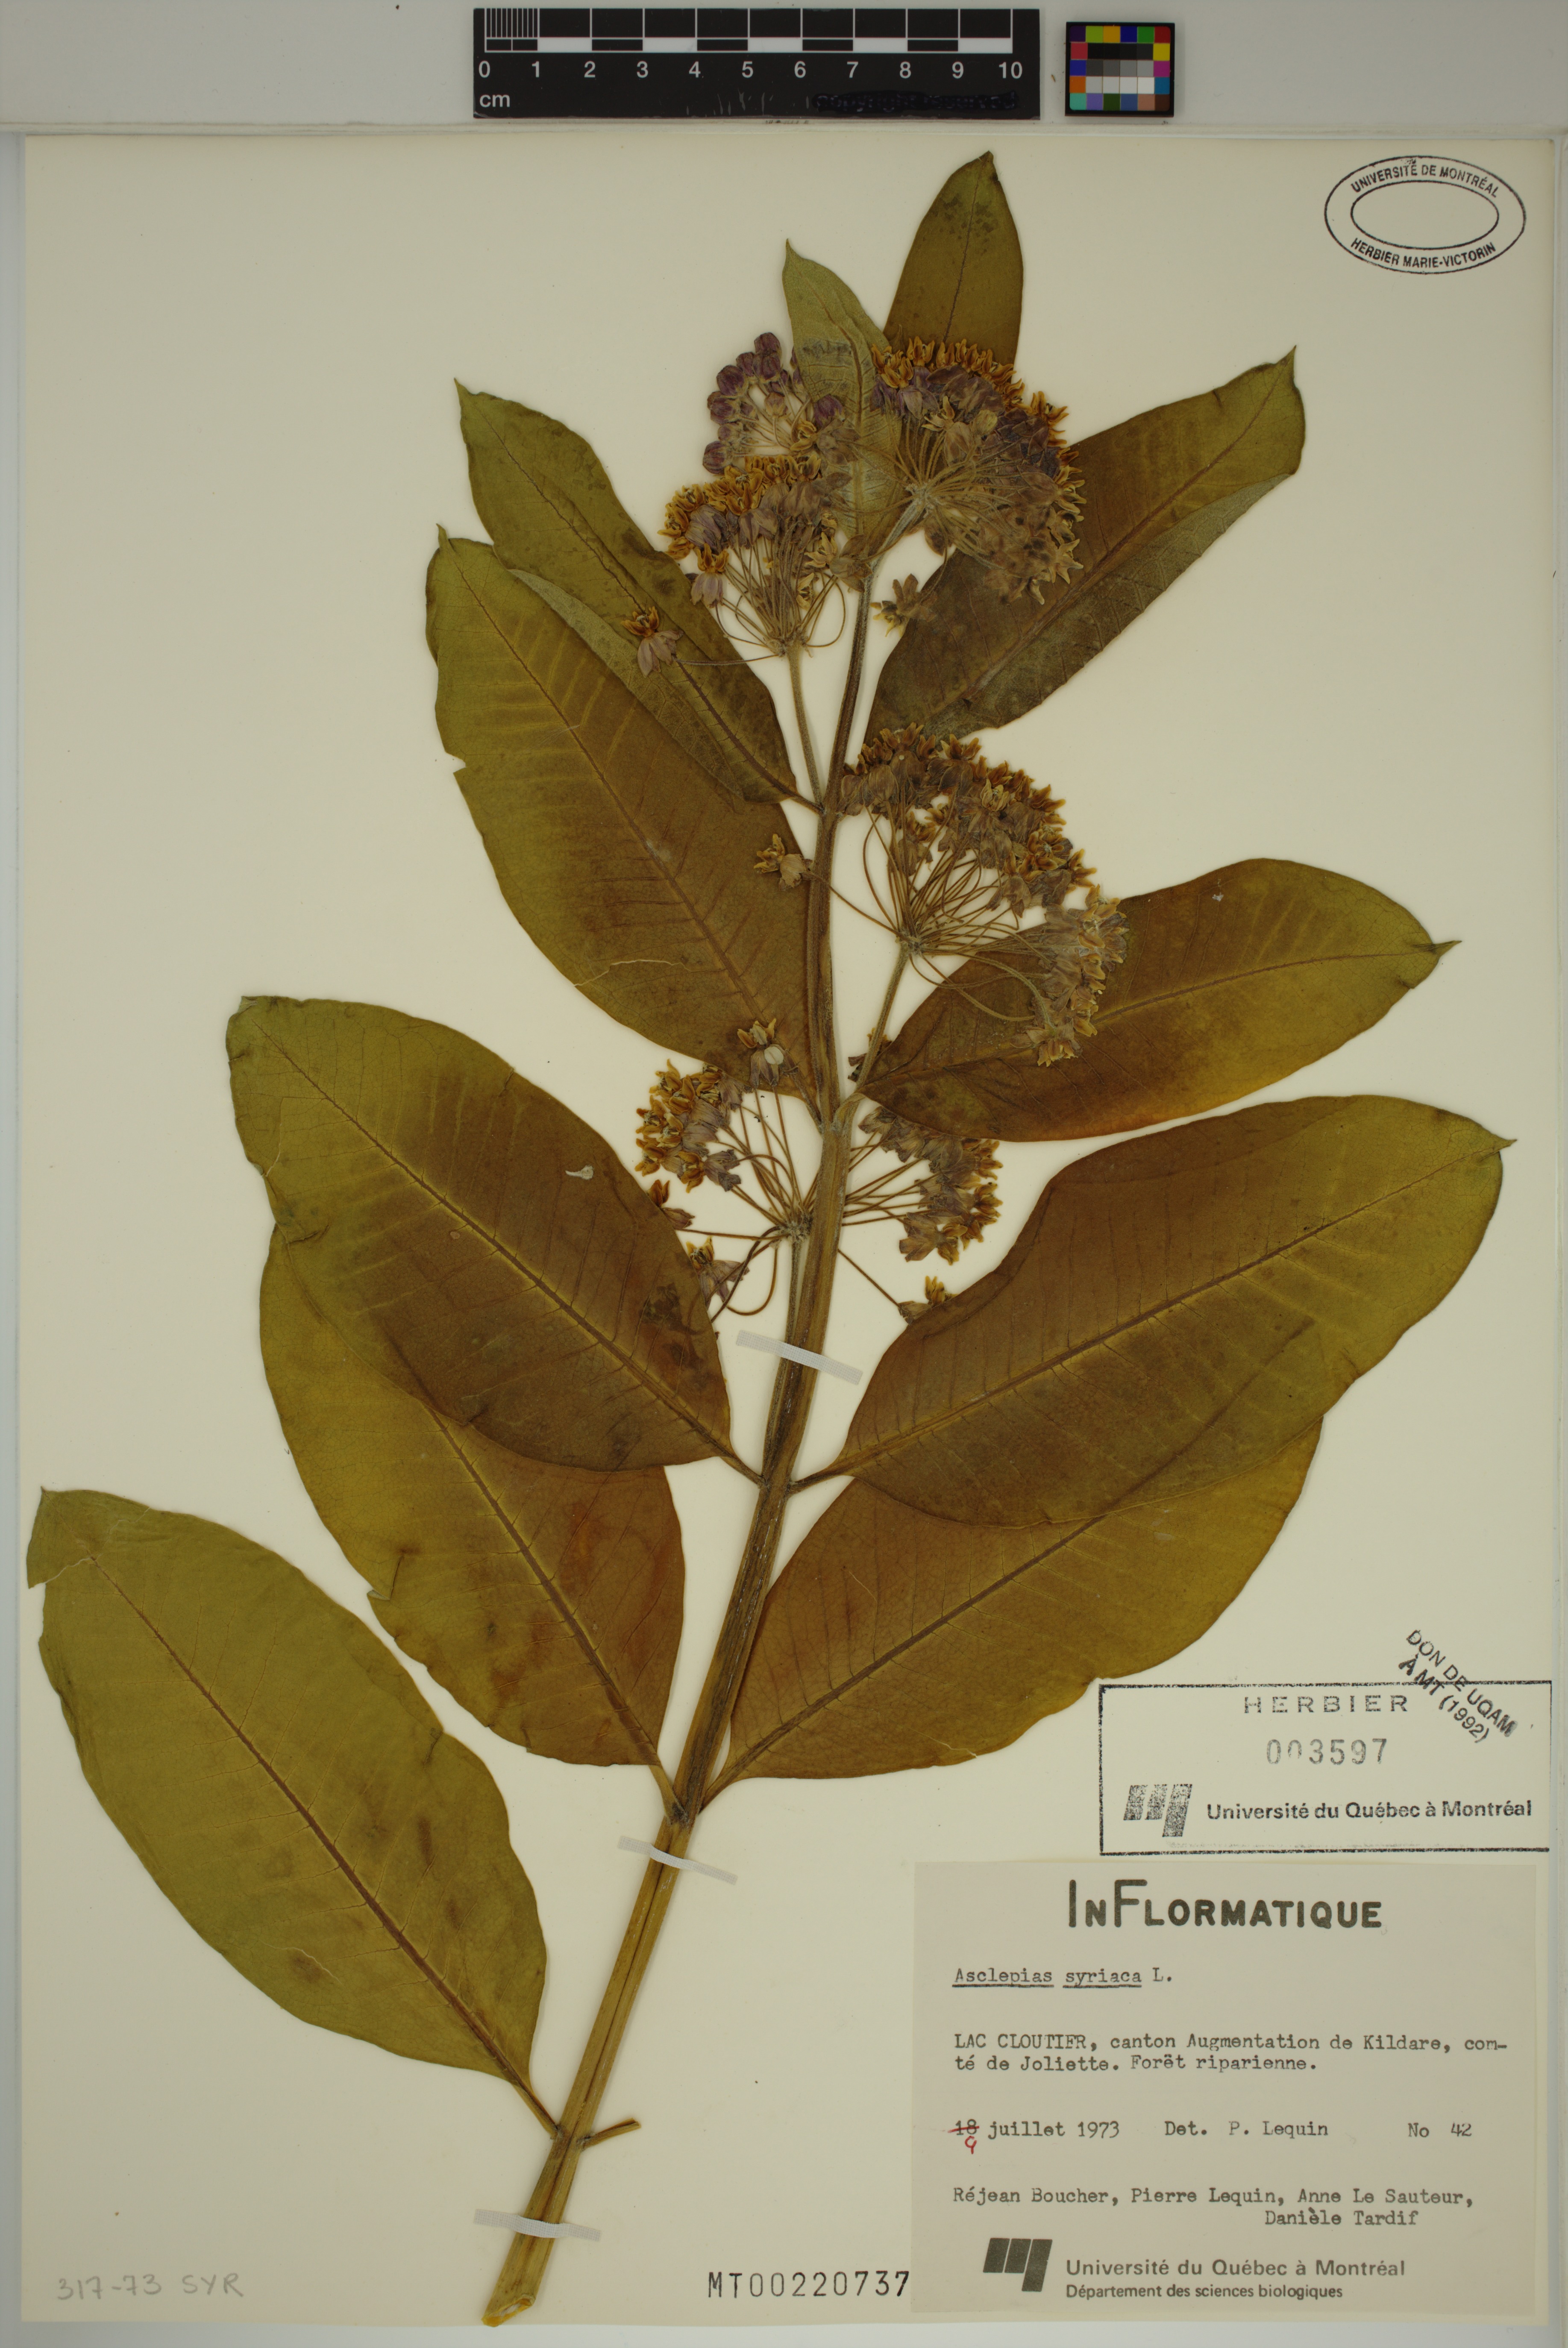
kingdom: Plantae
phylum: Tracheophyta
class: Magnoliopsida
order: Gentianales
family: Apocynaceae
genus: Asclepias
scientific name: Asclepias syriaca
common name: Common milkweed
